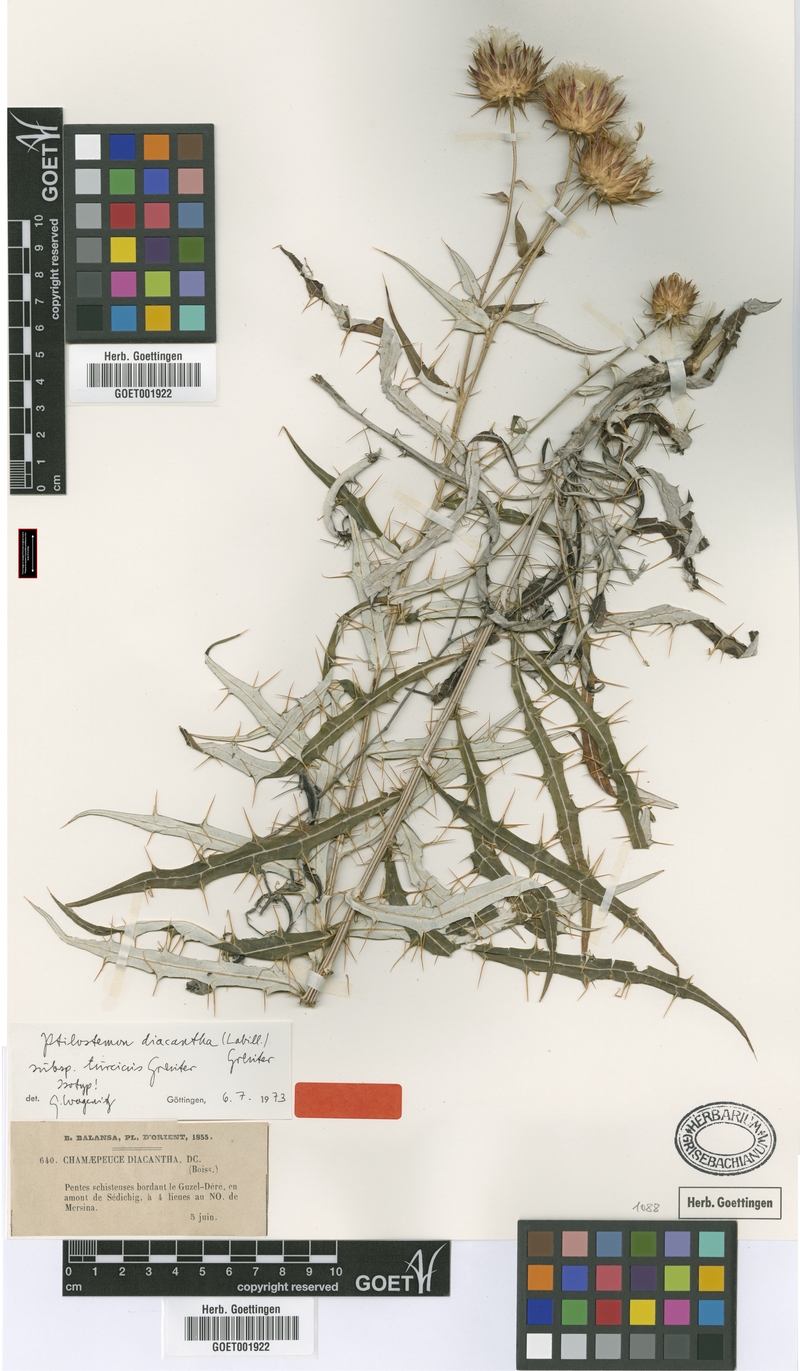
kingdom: Plantae
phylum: Tracheophyta
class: Magnoliopsida
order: Asterales
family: Asteraceae
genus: Ptilostemon
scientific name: Ptilostemon diacanthus
